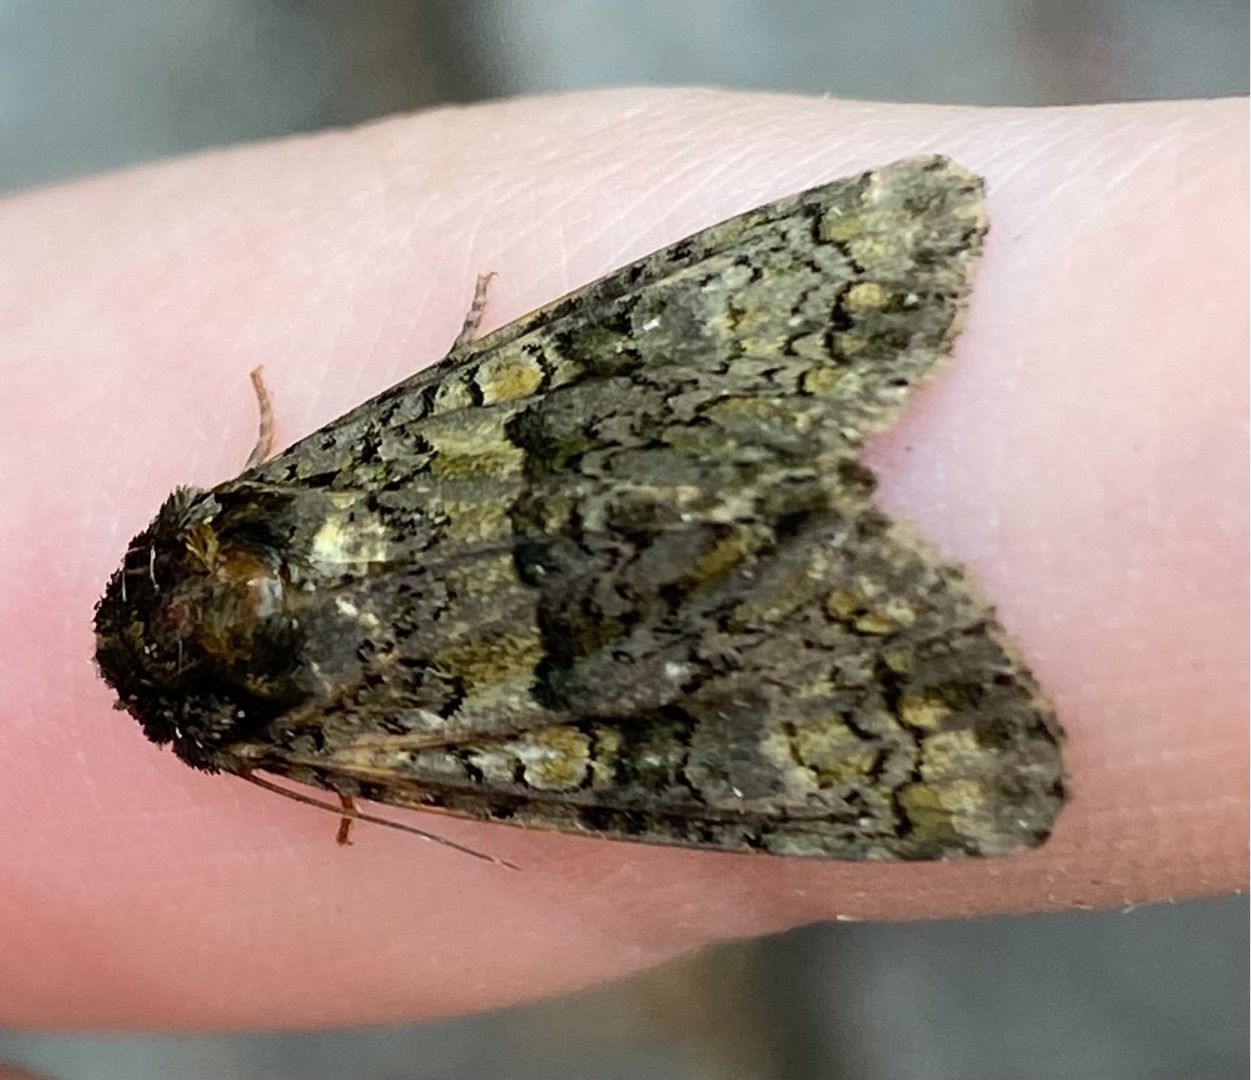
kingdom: Animalia
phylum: Arthropoda
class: Insecta
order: Lepidoptera
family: Noctuidae
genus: Craniophora
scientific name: Craniophora ligustri
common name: Askeugle
